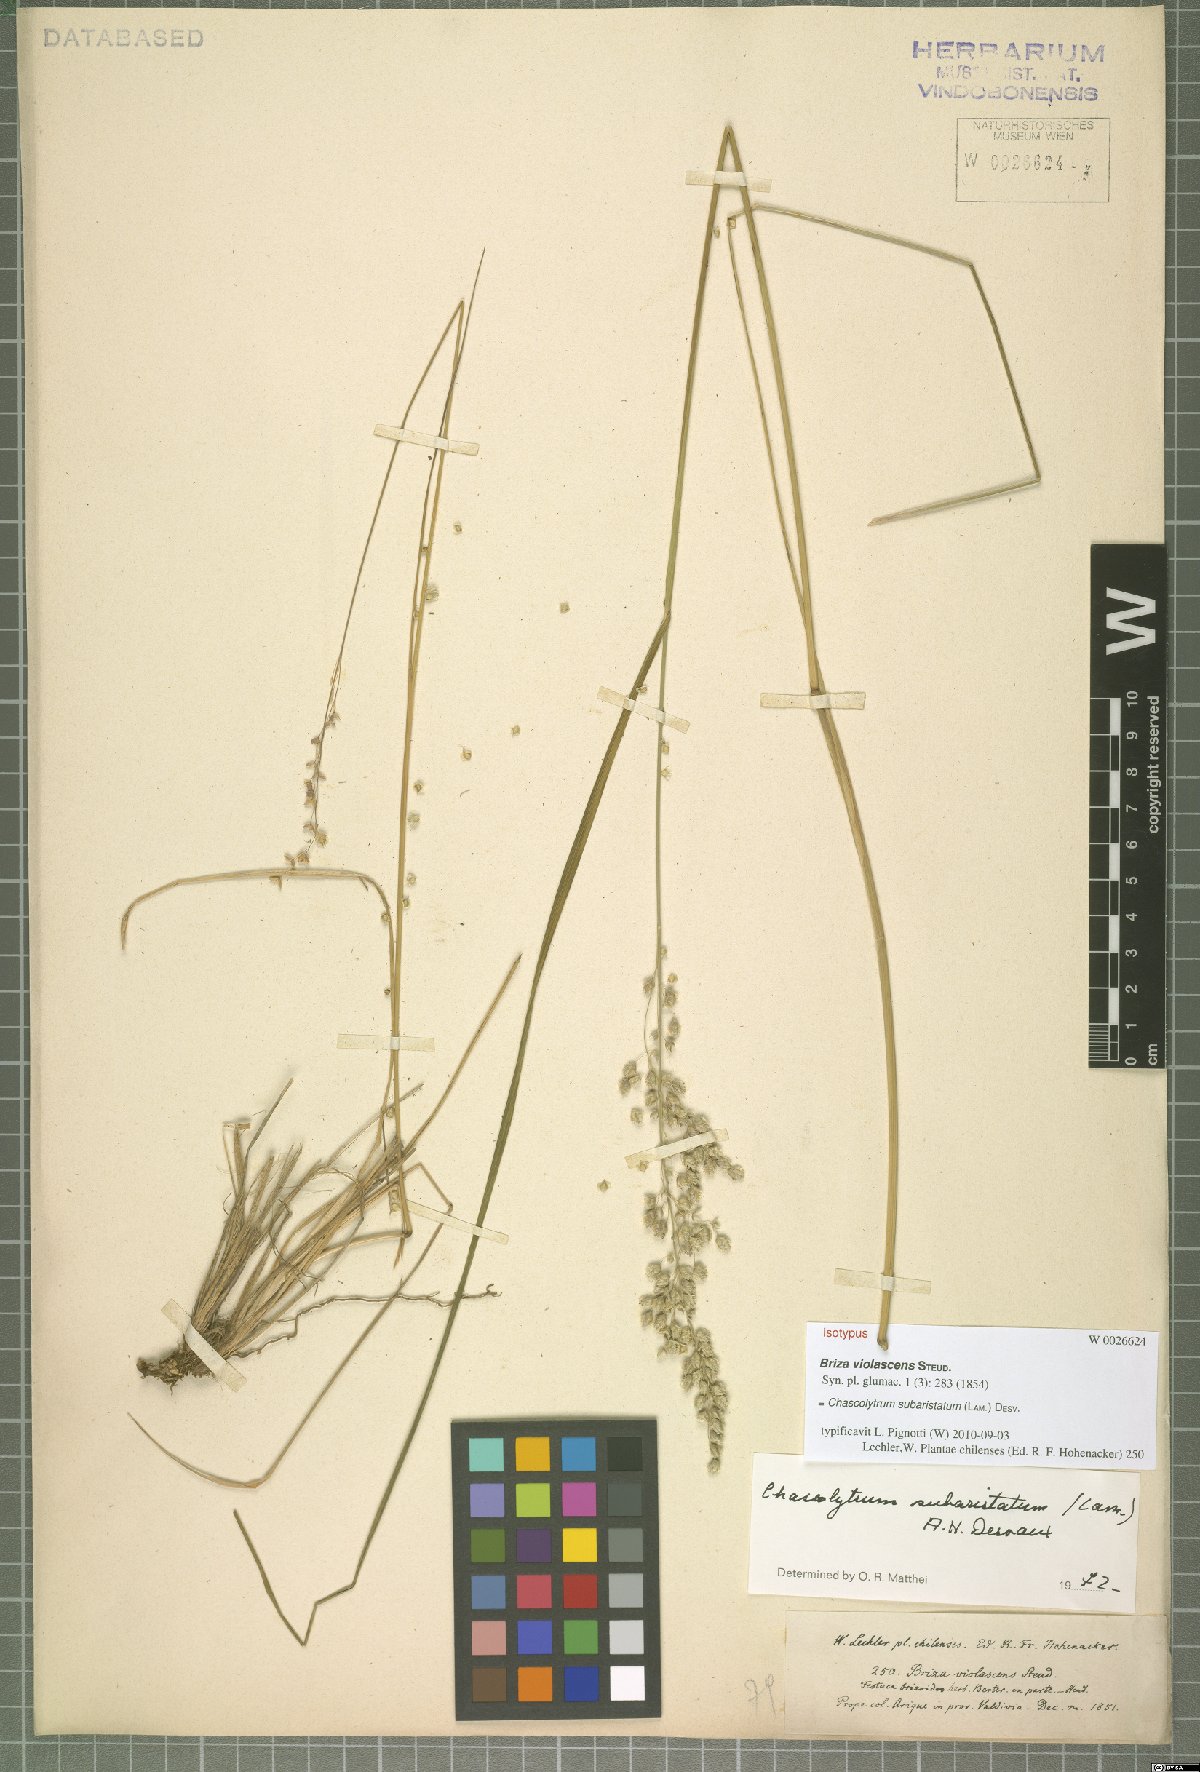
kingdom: Plantae
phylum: Tracheophyta
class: Liliopsida
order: Poales
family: Poaceae
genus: Chascolytrum
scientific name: Chascolytrum subaristatum
